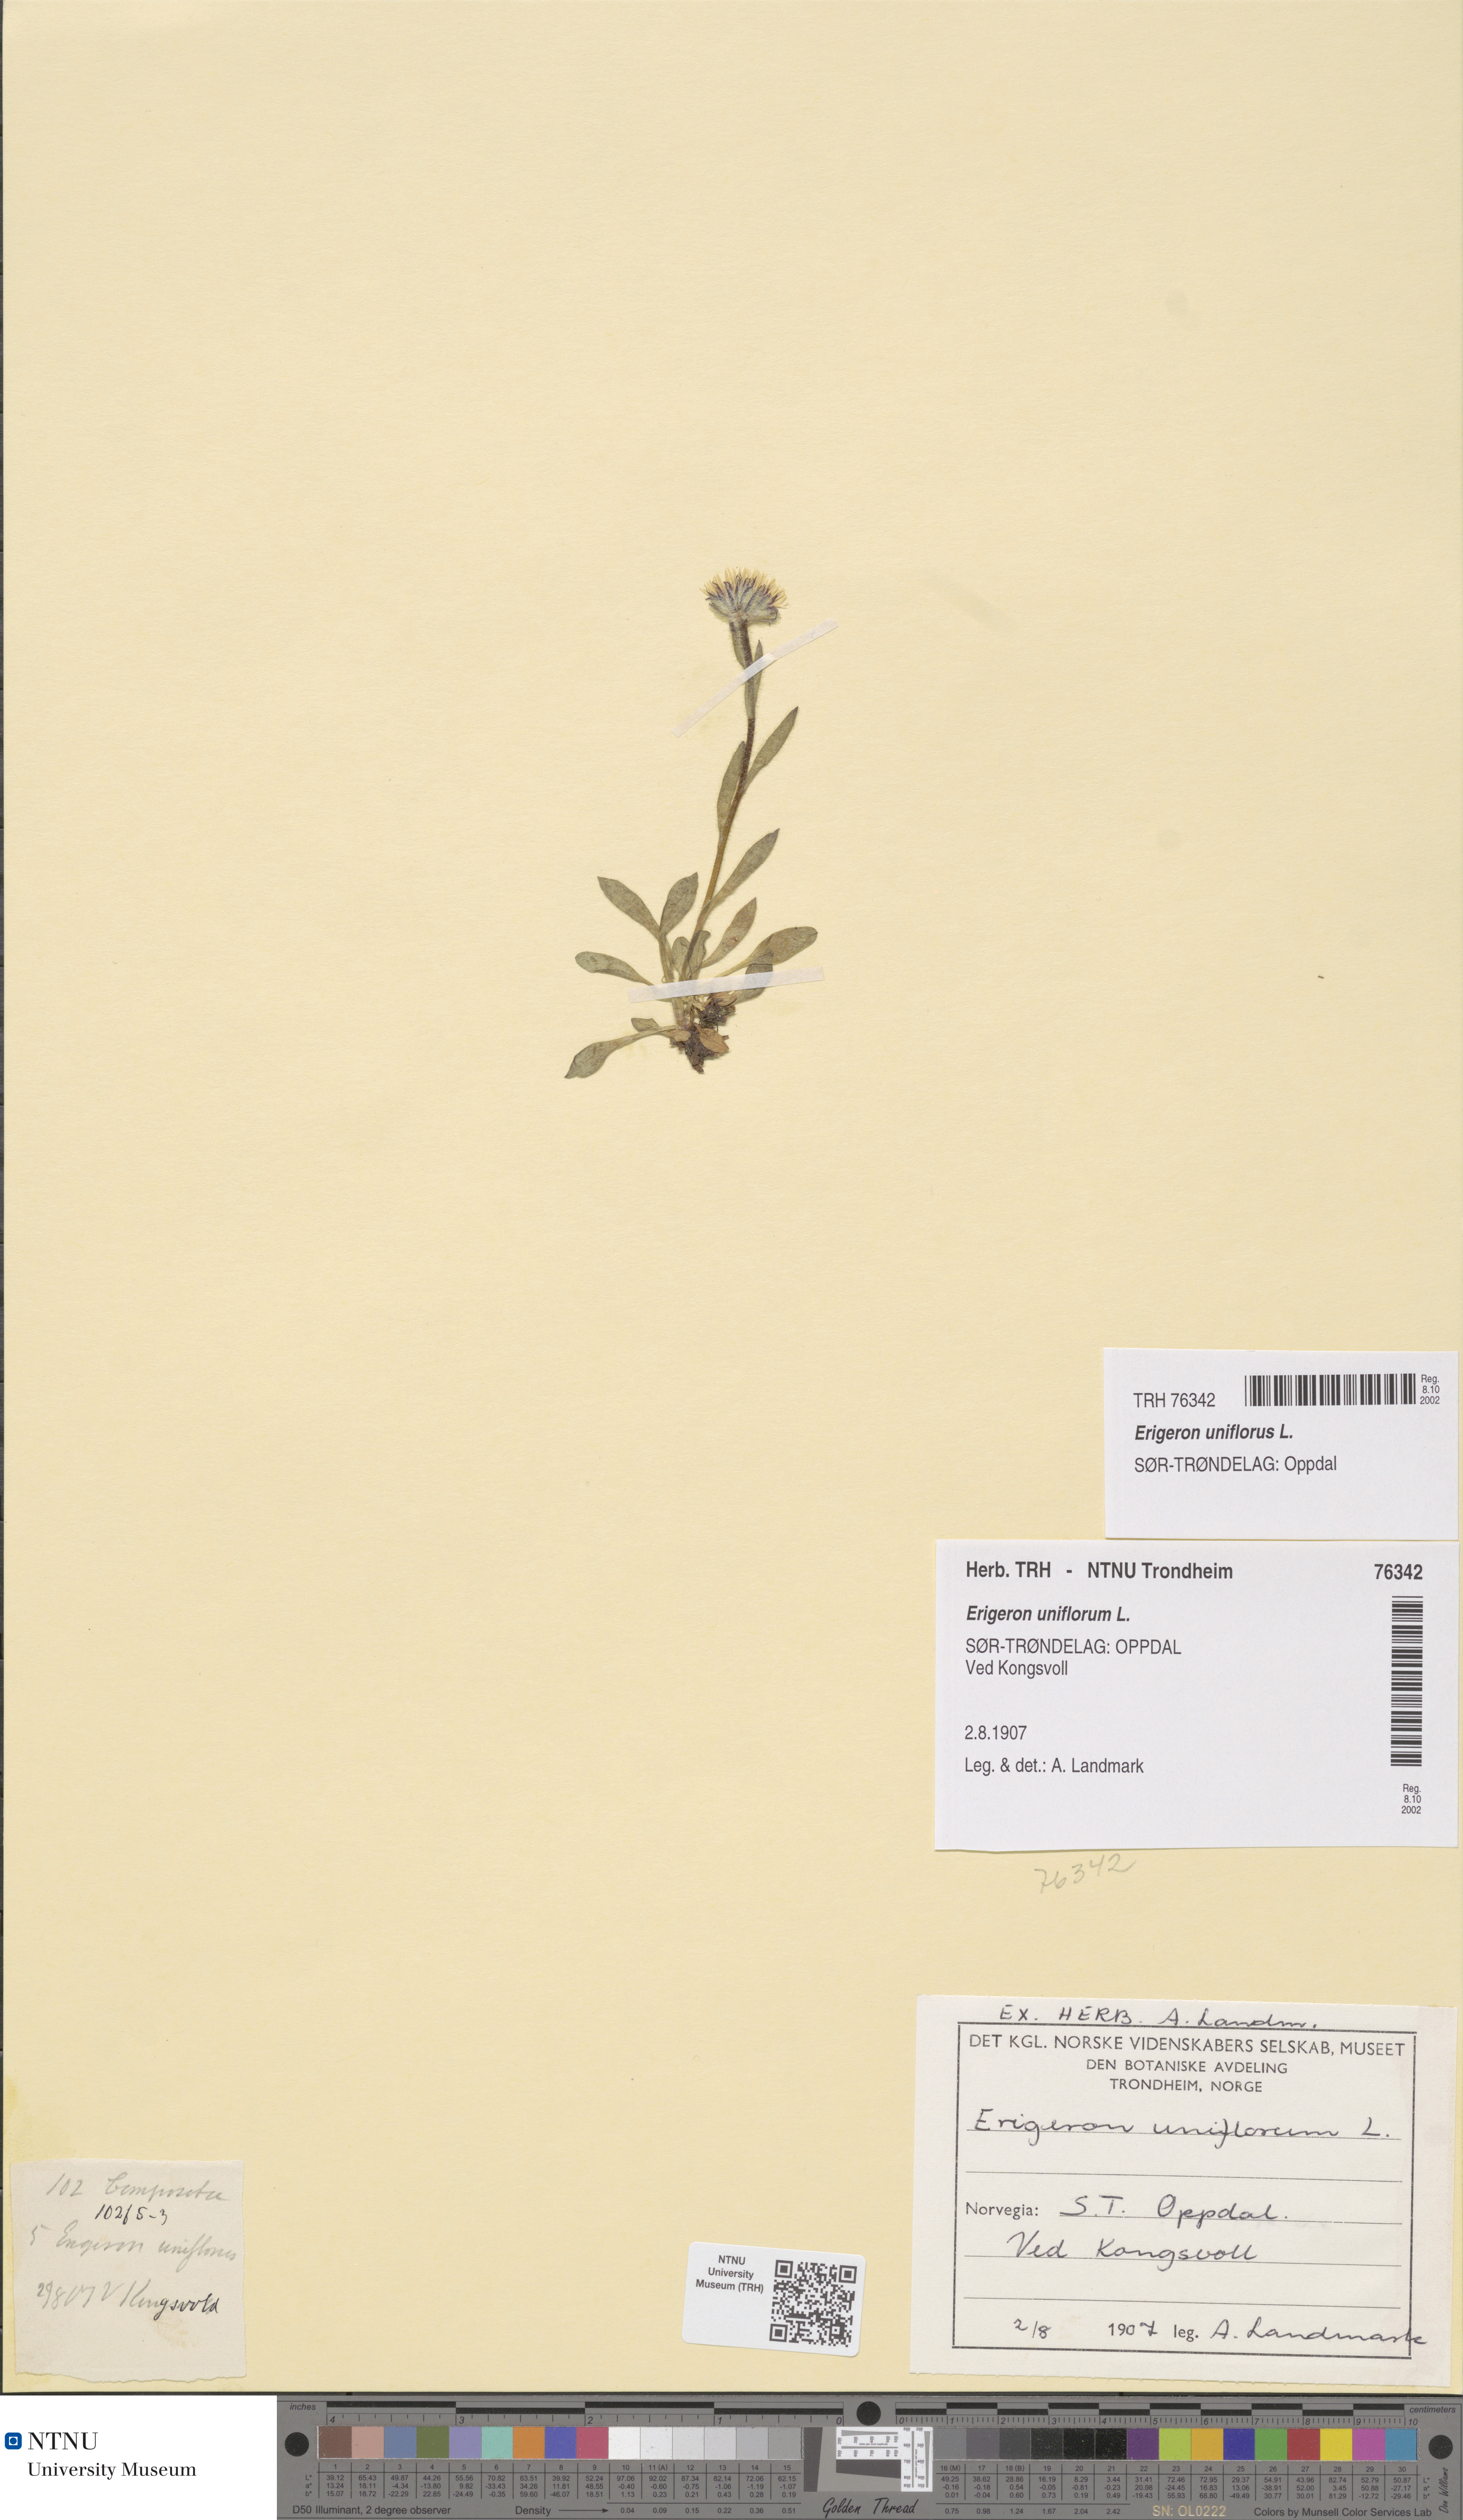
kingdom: Plantae
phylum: Tracheophyta
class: Magnoliopsida
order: Asterales
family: Asteraceae
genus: Erigeron
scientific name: Erigeron uniflorus
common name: Northern daisy
